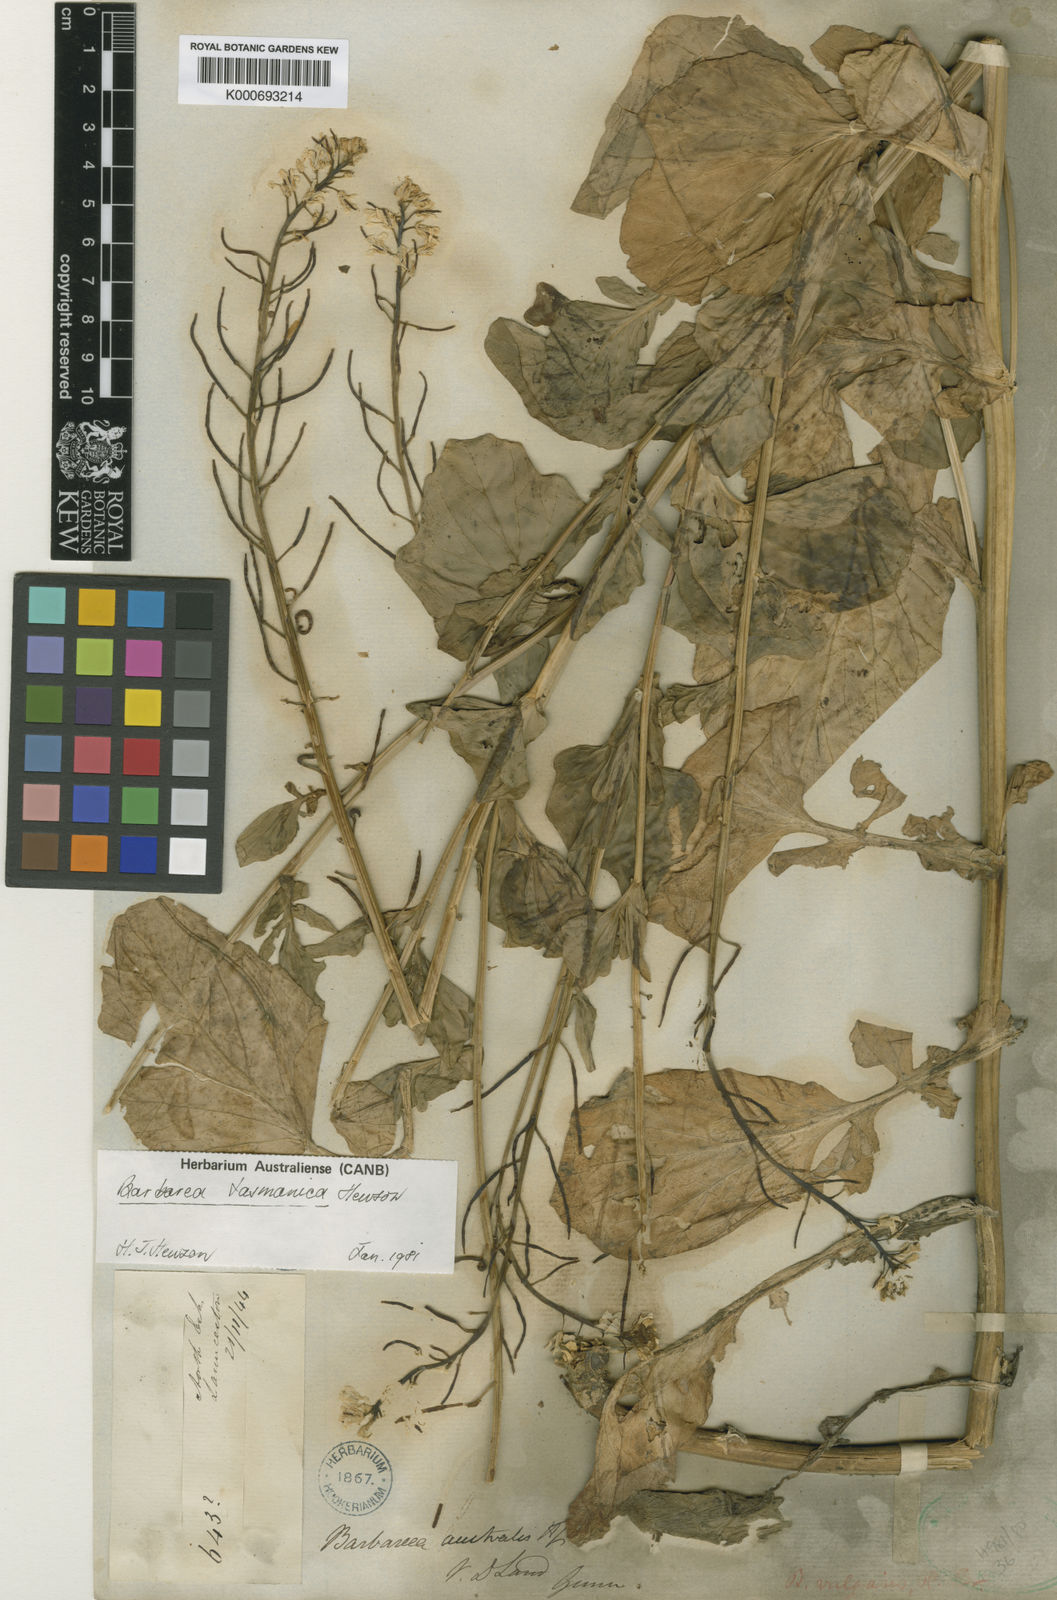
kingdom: Plantae
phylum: Tracheophyta
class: Magnoliopsida
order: Brassicales
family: Brassicaceae
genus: Barbarea
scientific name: Barbarea australis
